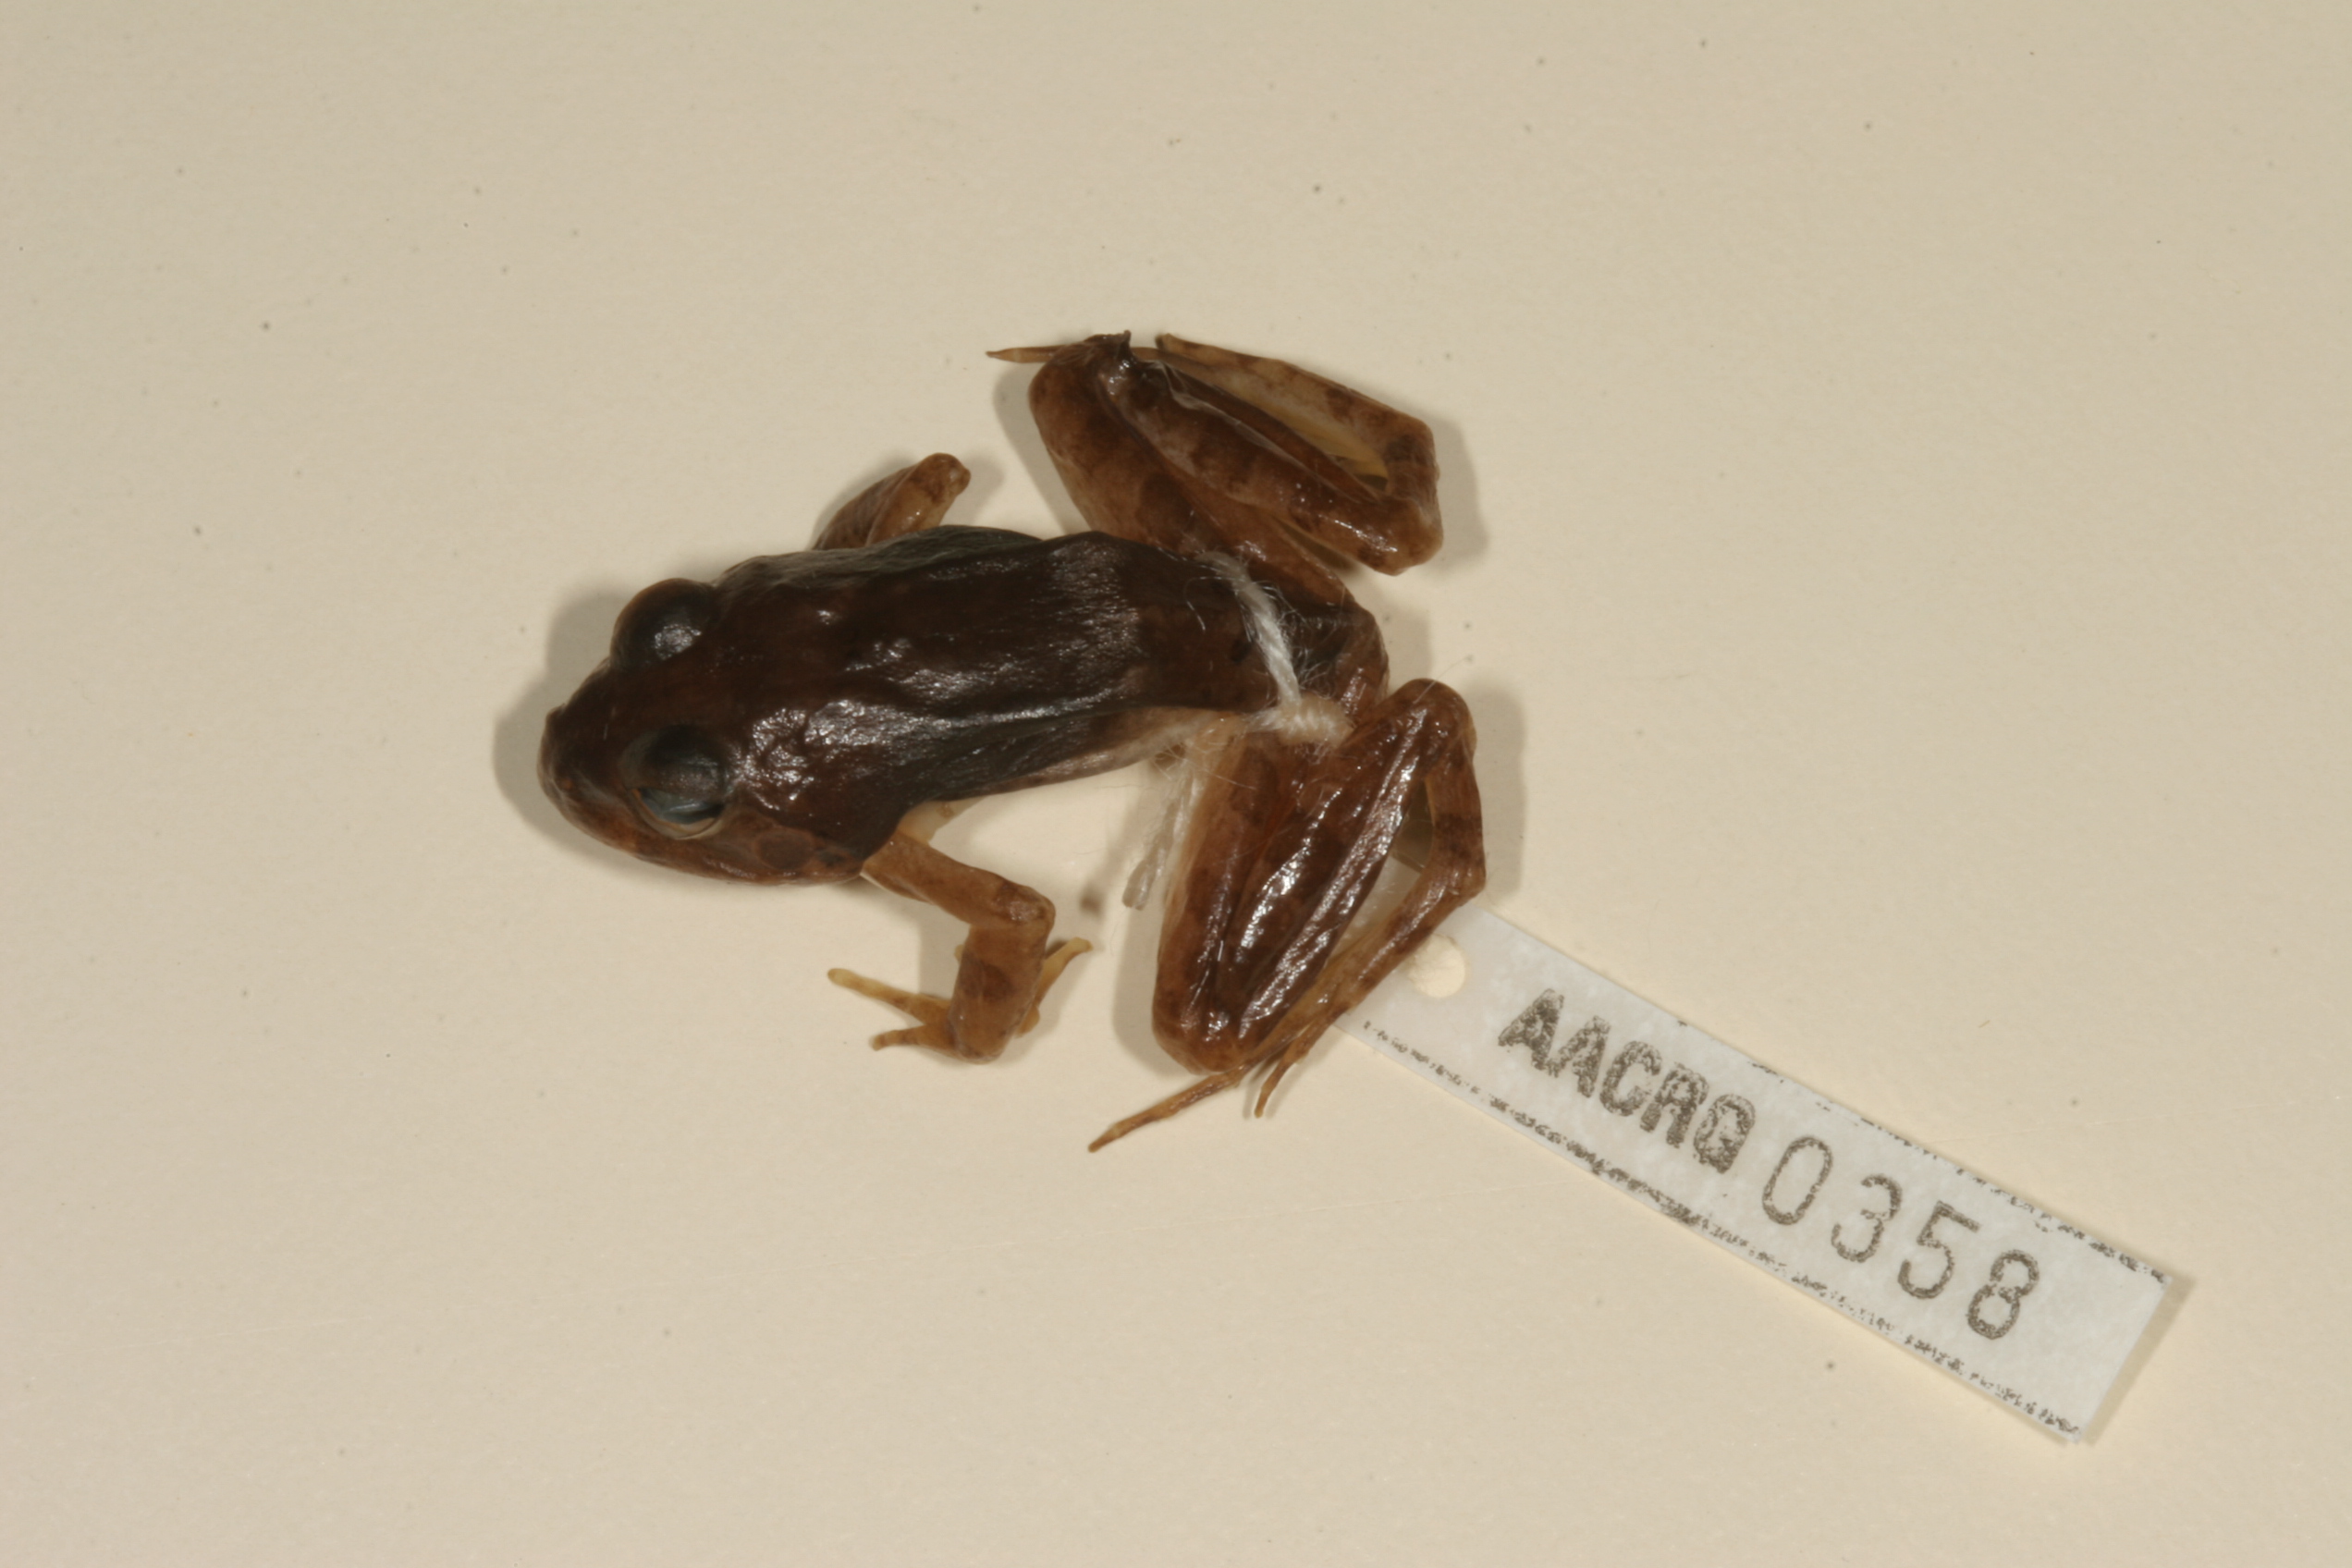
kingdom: Animalia
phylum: Chordata
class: Amphibia
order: Anura
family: Pyxicephalidae
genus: Tomopterna
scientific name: Tomopterna natalensis
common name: Natal sand frog
